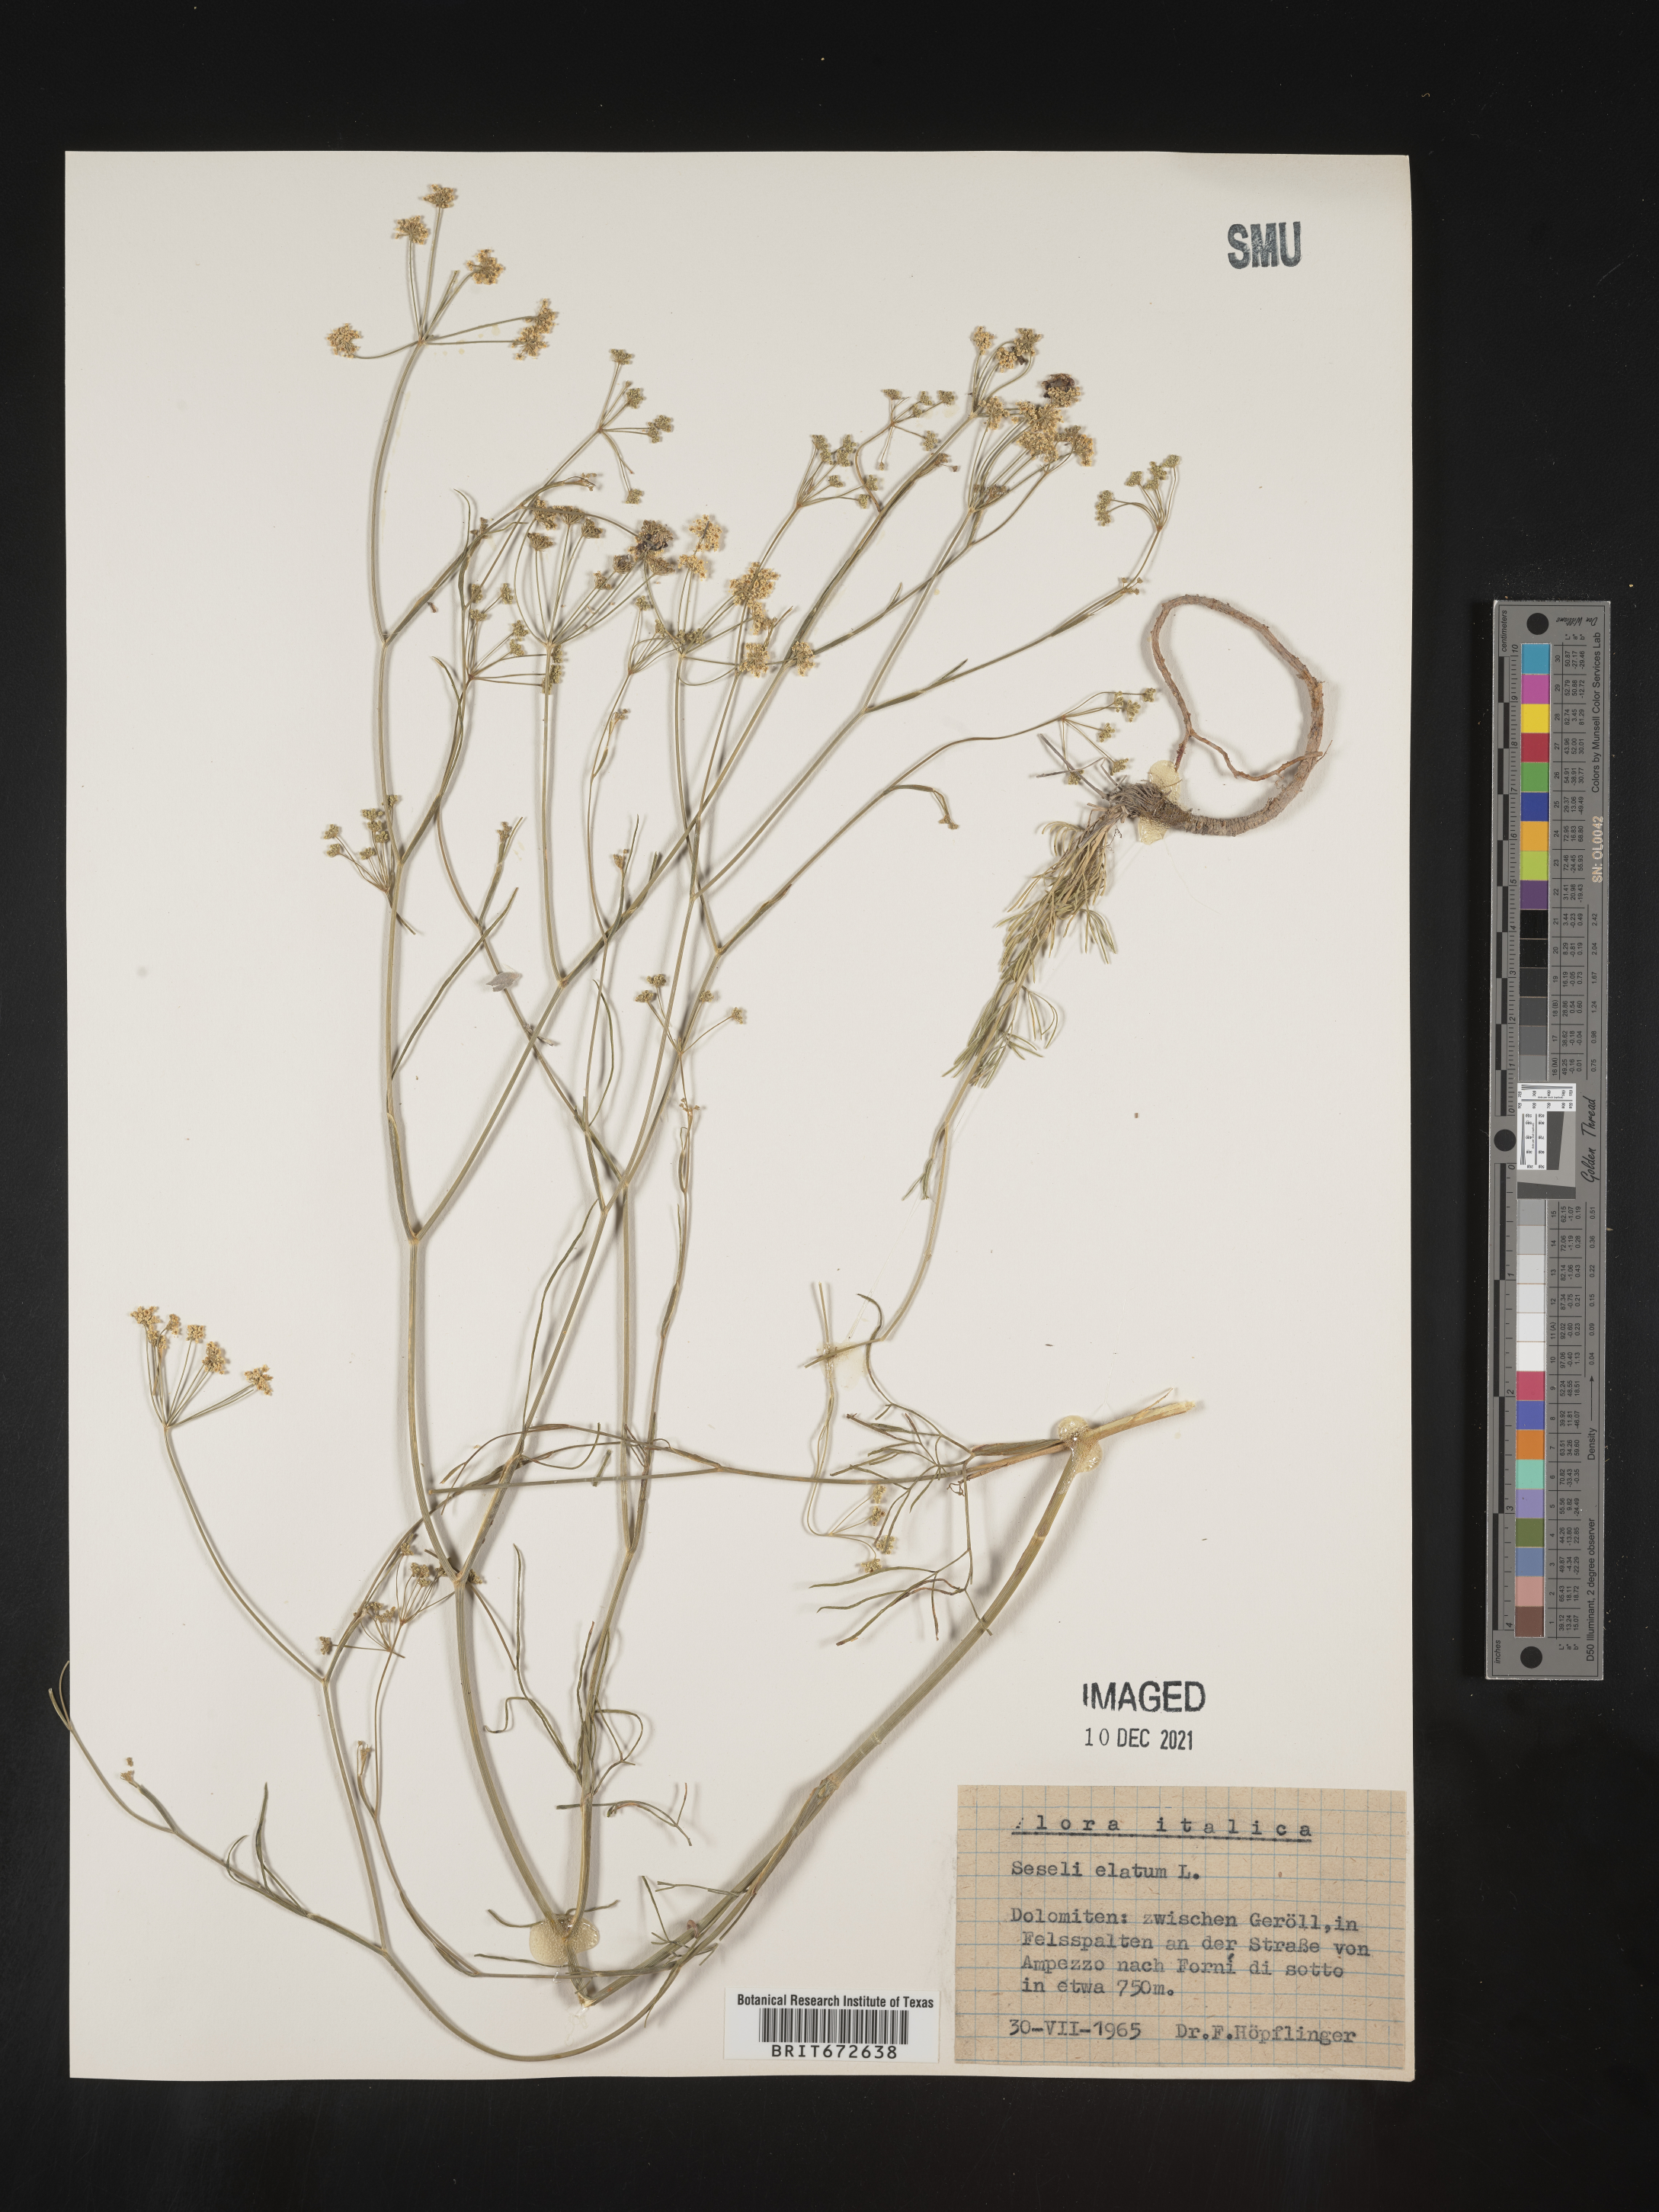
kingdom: Plantae
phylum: Tracheophyta
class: Magnoliopsida
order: Apiales
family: Apiaceae
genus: Seseli
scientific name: Seseli
